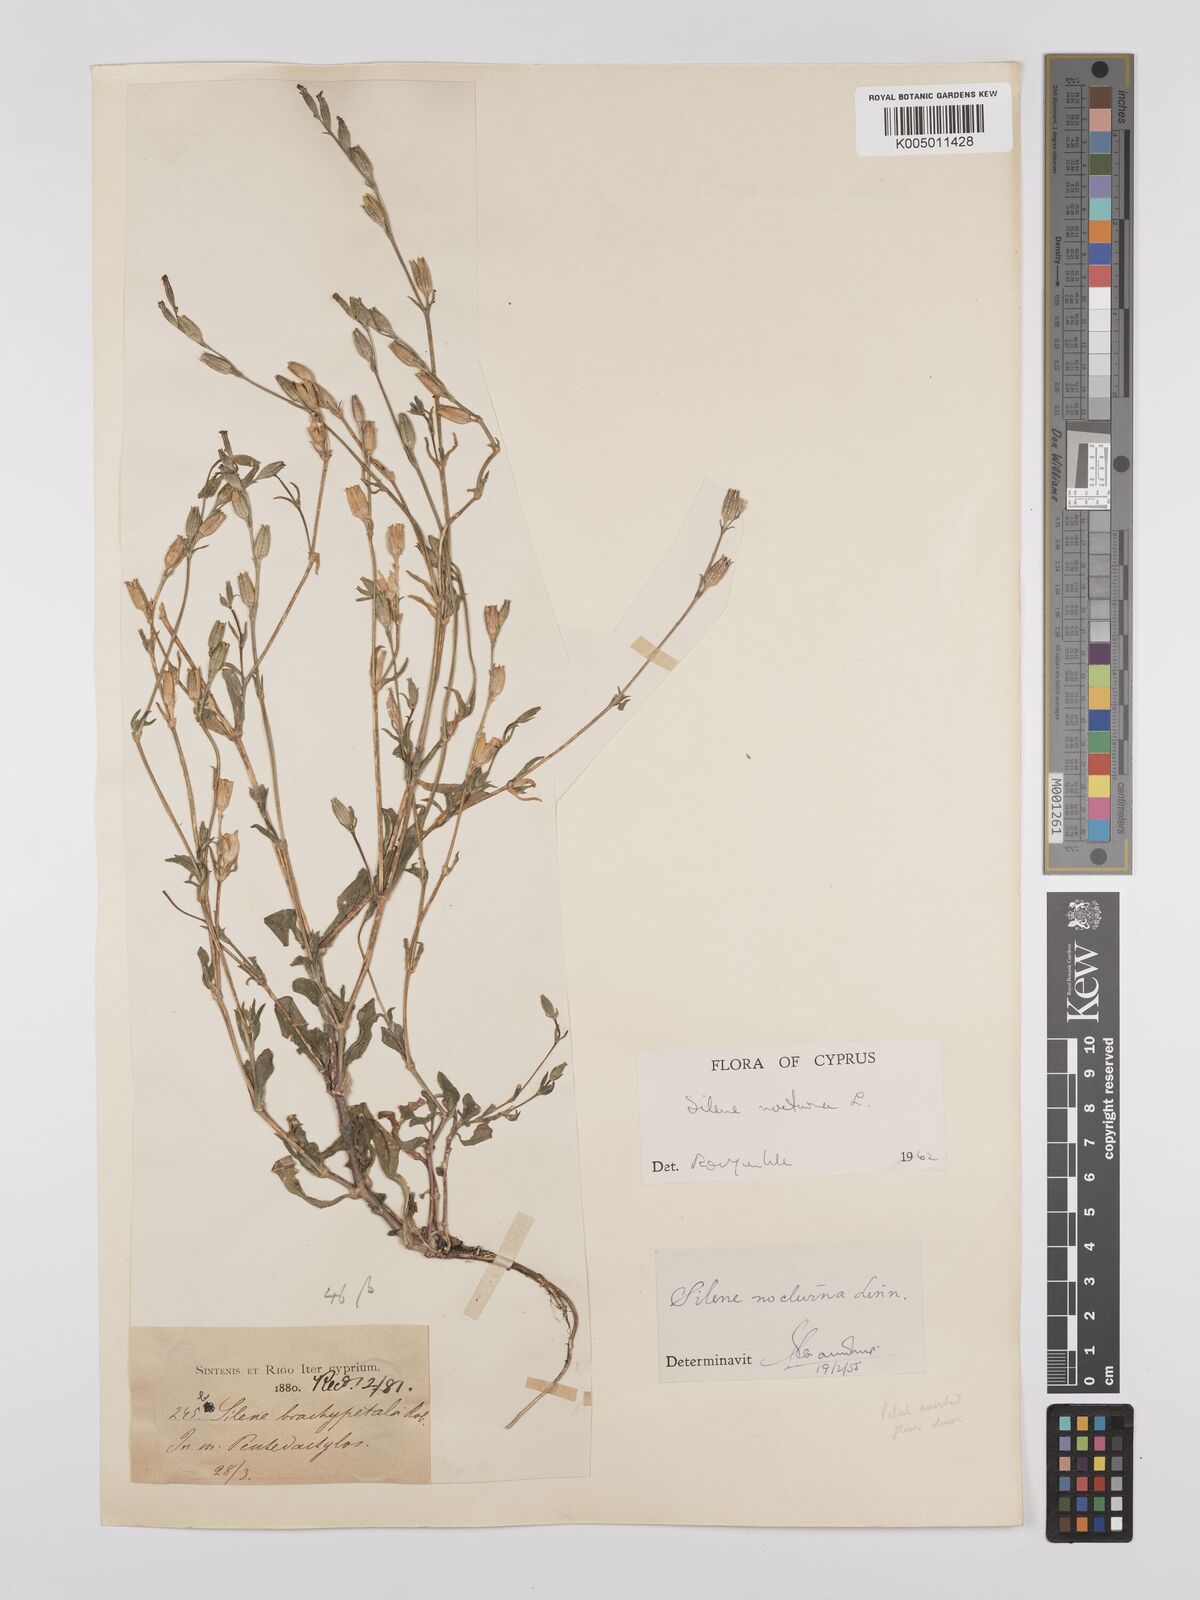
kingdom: Plantae
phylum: Tracheophyta
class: Magnoliopsida
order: Caryophyllales
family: Caryophyllaceae
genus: Silene
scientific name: Silene nocturna
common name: Mediterranean catchfly
